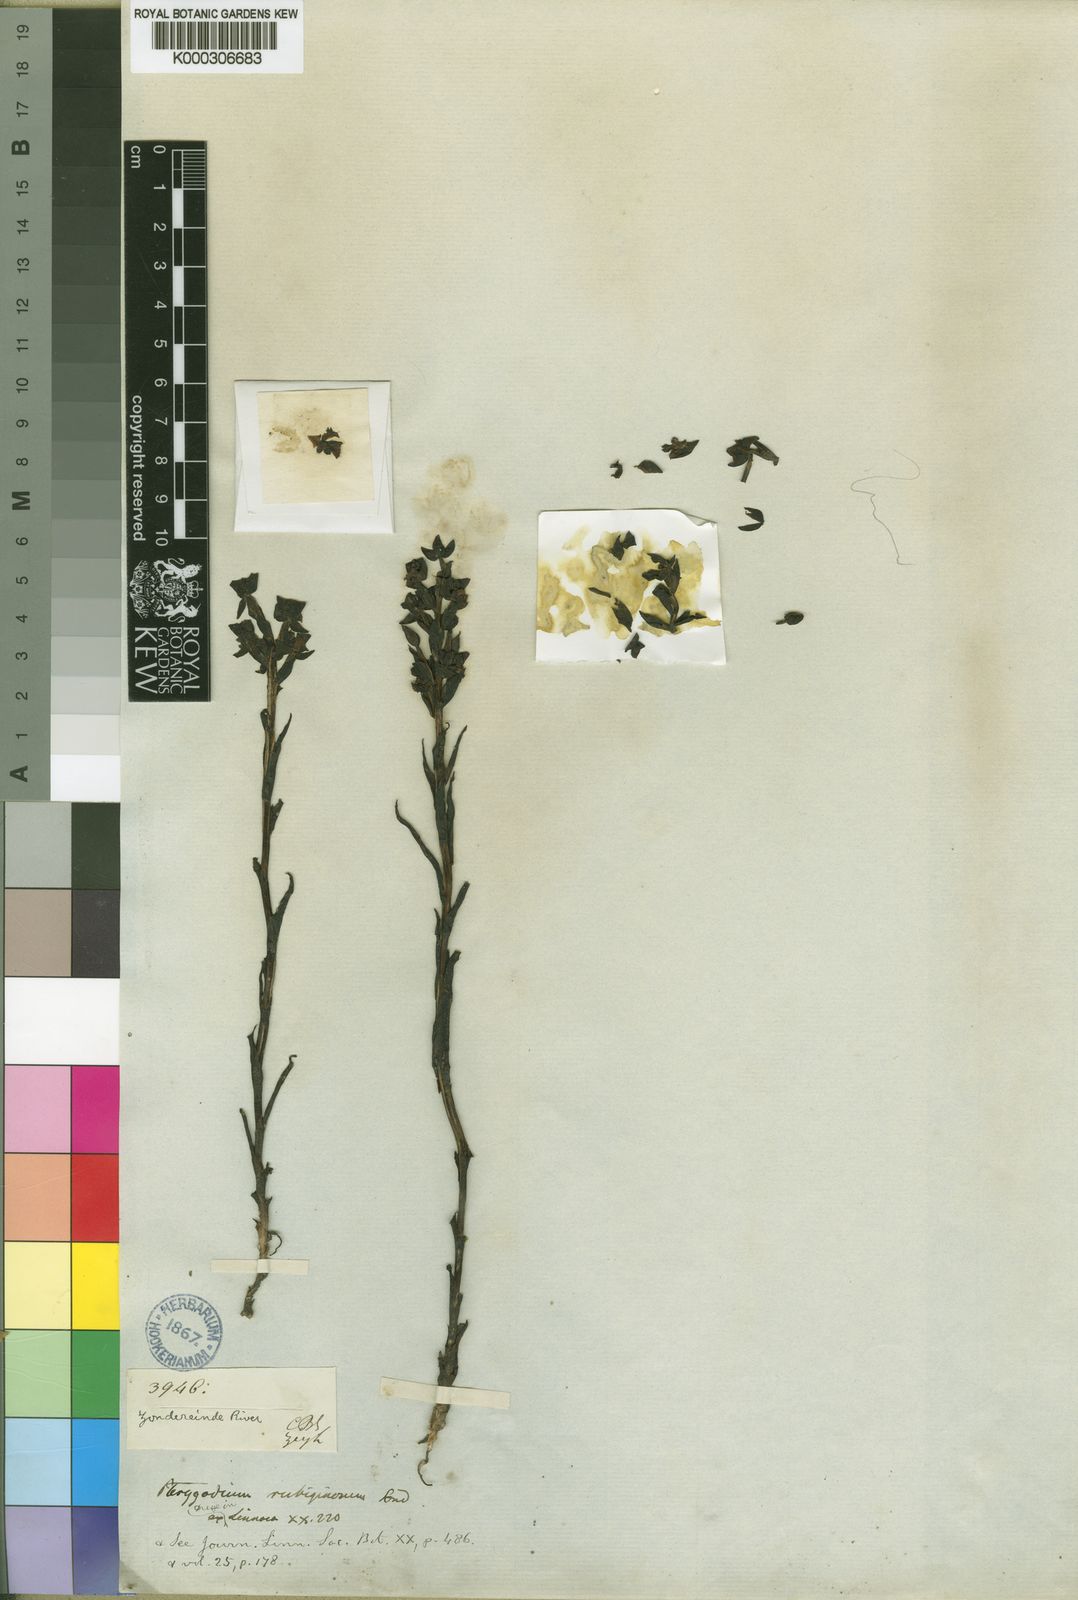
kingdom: Plantae
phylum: Tracheophyta
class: Liliopsida
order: Asparagales
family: Orchidaceae
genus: Evotella
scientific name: Evotella rubiginosa
